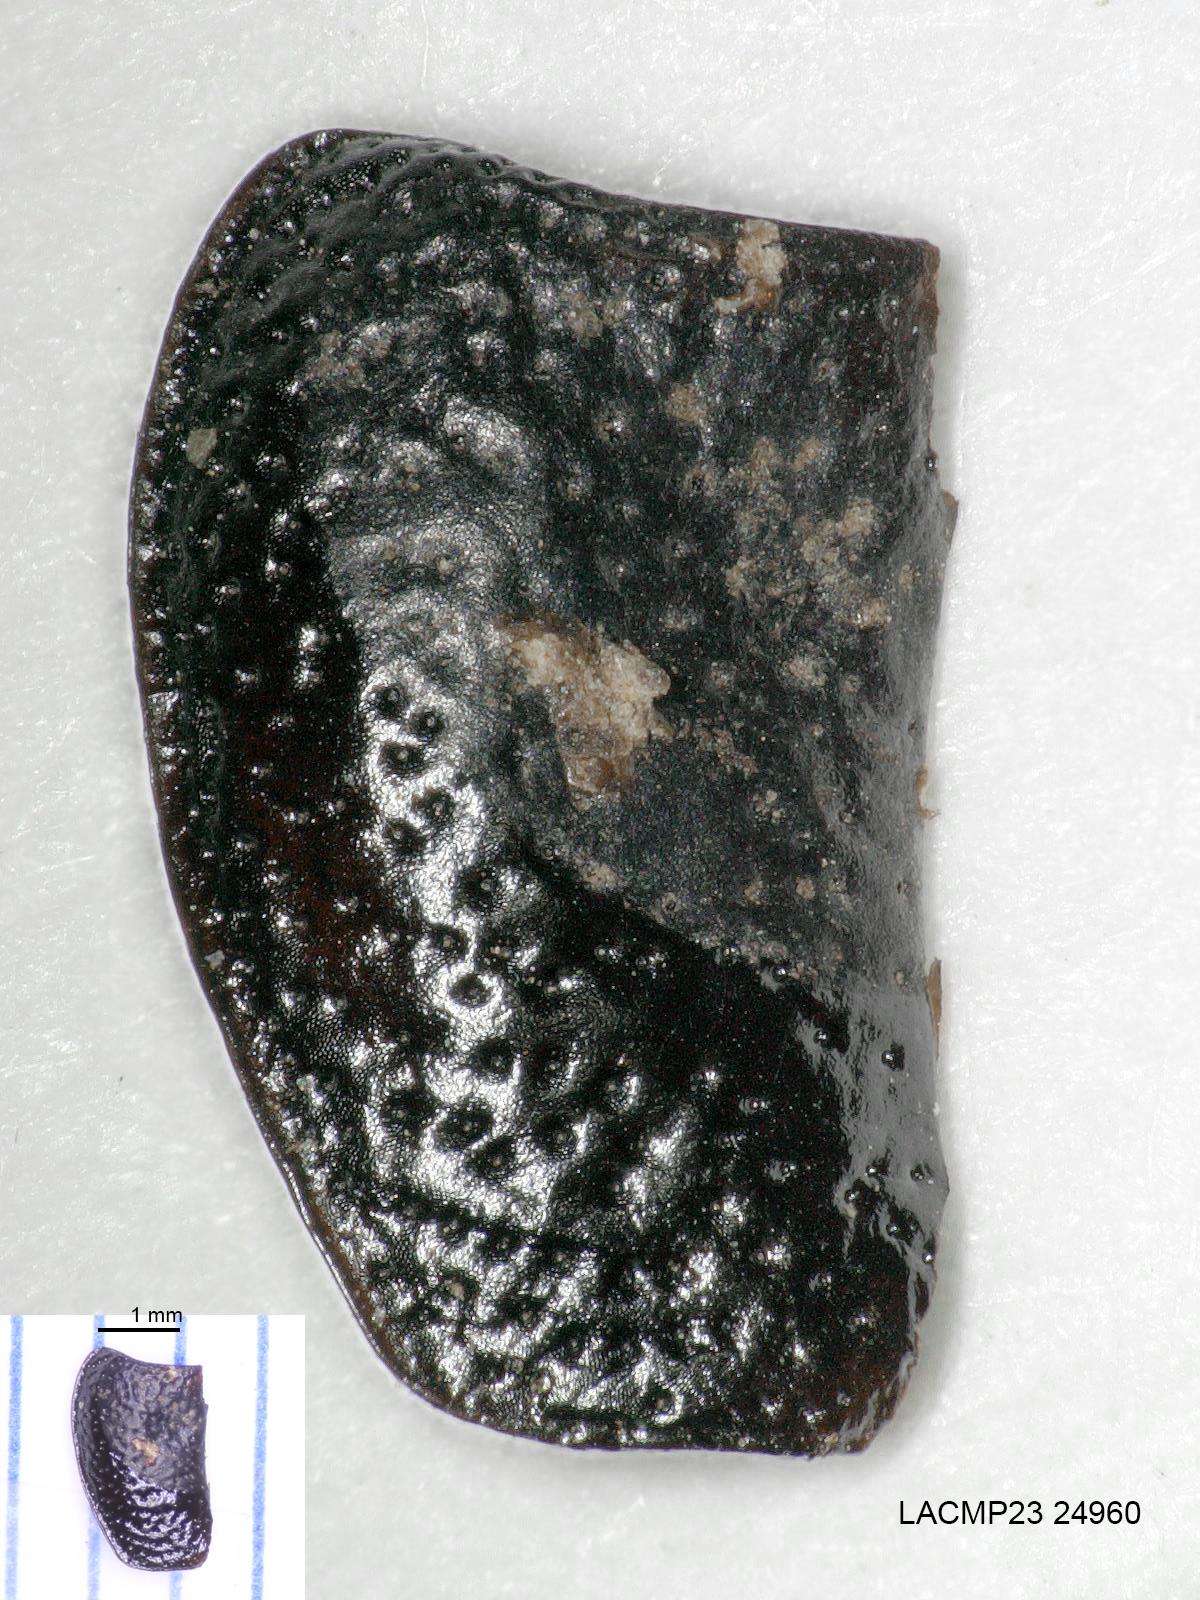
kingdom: Animalia
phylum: Arthropoda
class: Insecta
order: Coleoptera
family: Carabidae
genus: Dicheirus
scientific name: Dicheirus dilatatus
